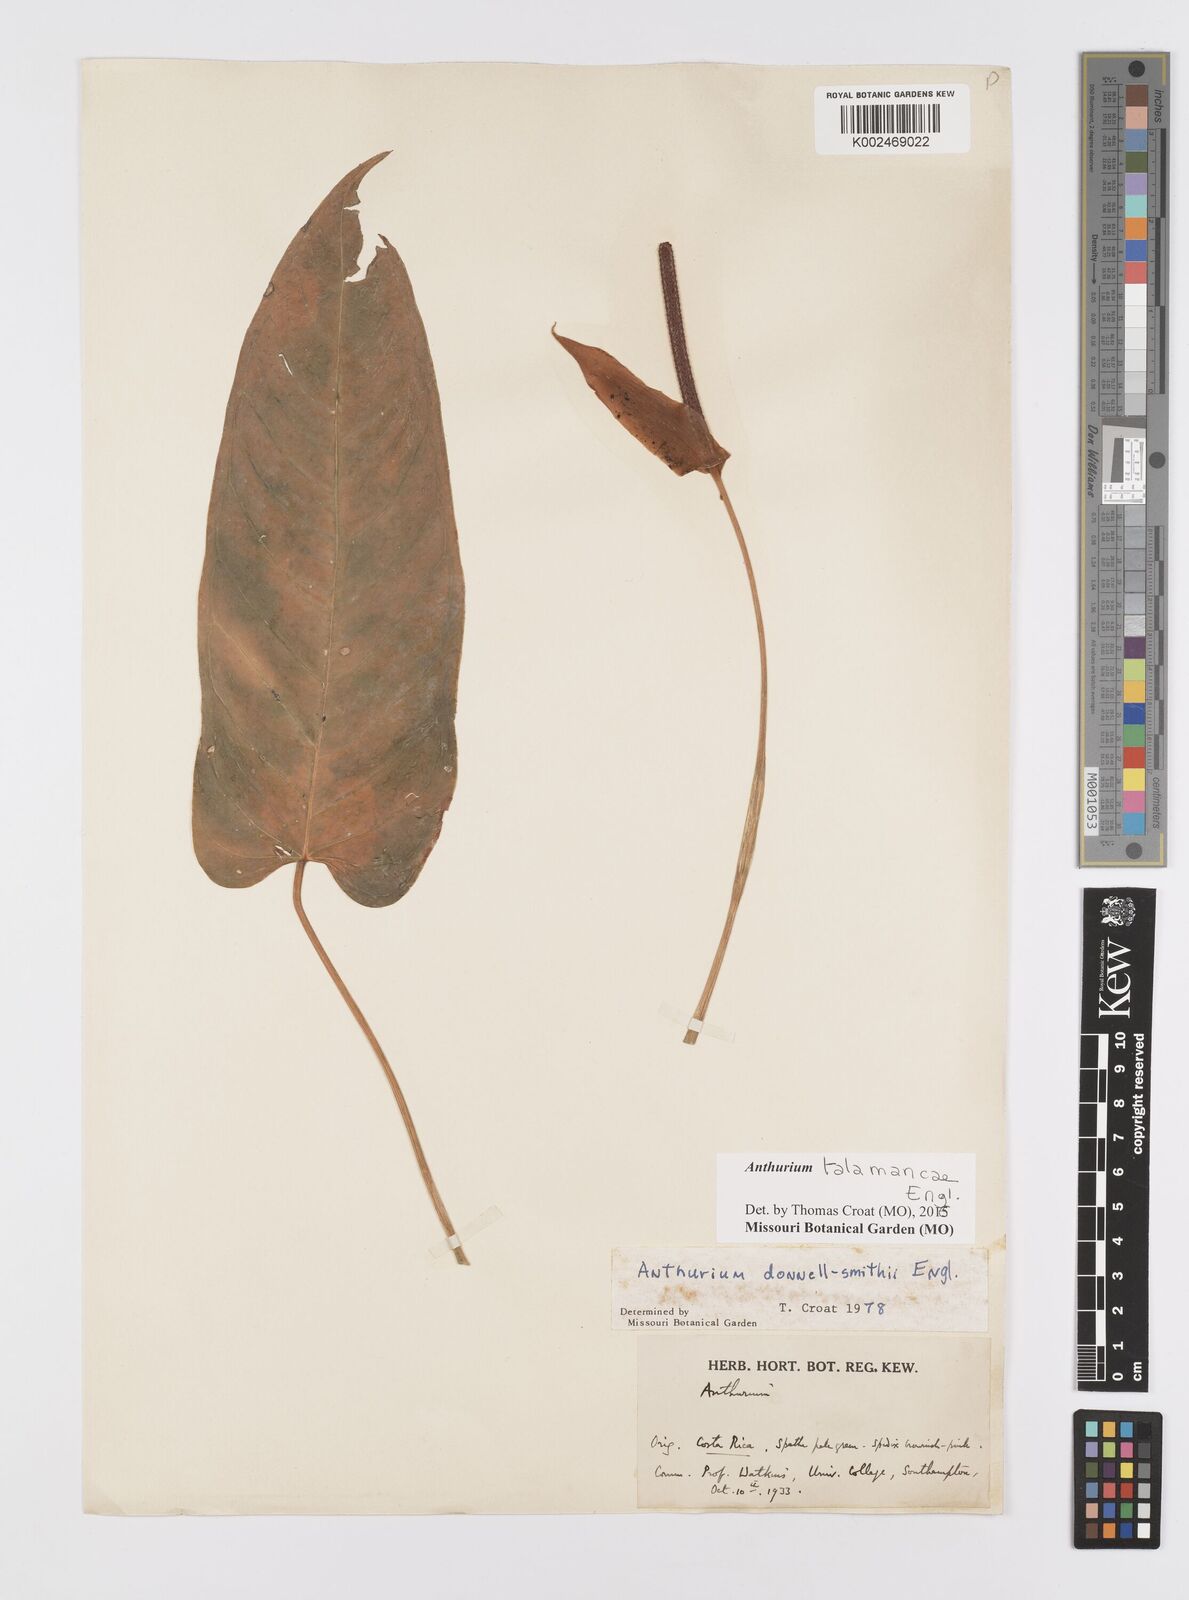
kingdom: Plantae
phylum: Tracheophyta
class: Liliopsida
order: Alismatales
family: Araceae
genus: Anthurium
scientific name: Anthurium talamancae
